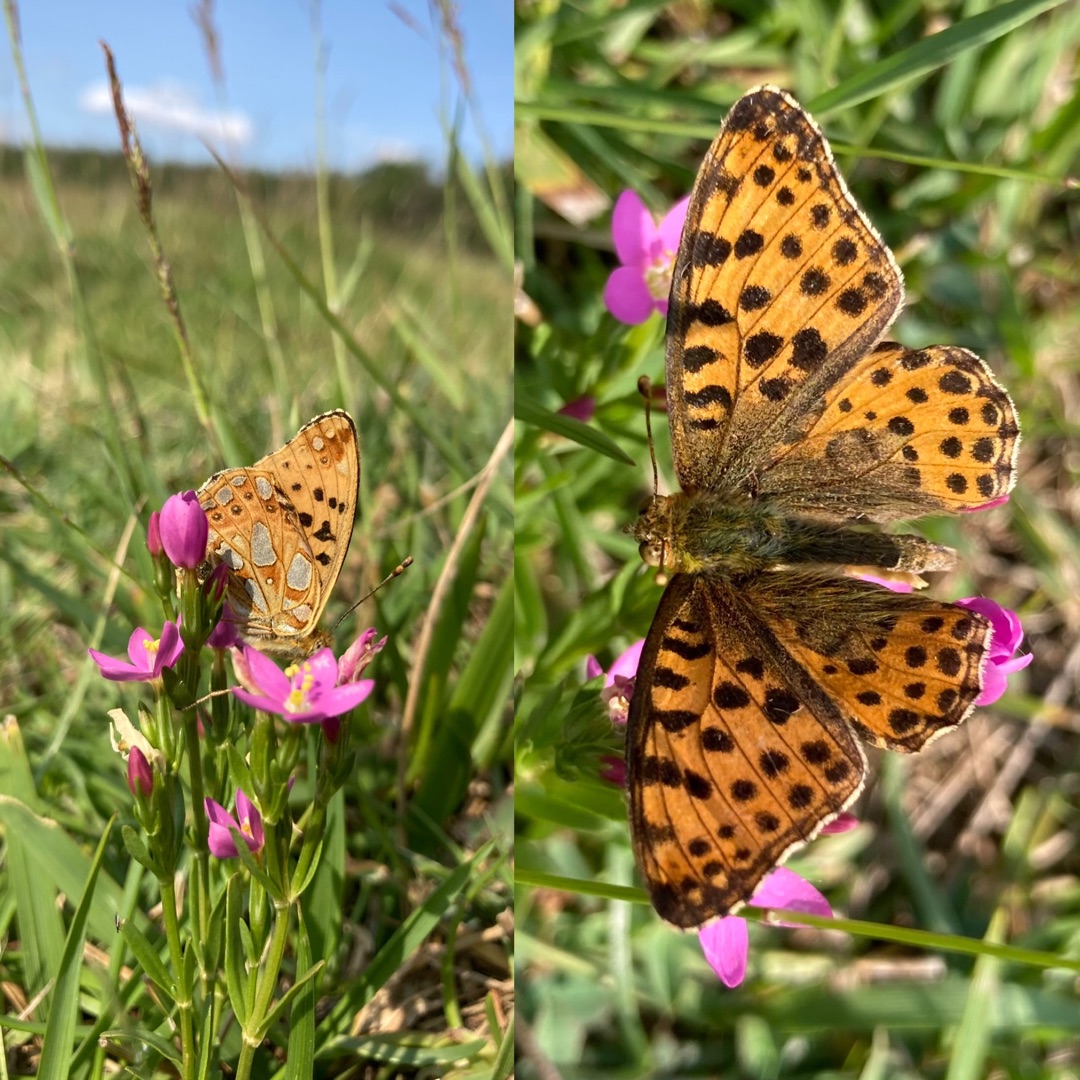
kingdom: Animalia
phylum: Arthropoda
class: Insecta
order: Lepidoptera
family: Nymphalidae
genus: Issoria
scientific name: Issoria lathonia
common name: Storplettet perlemorsommerfugl
